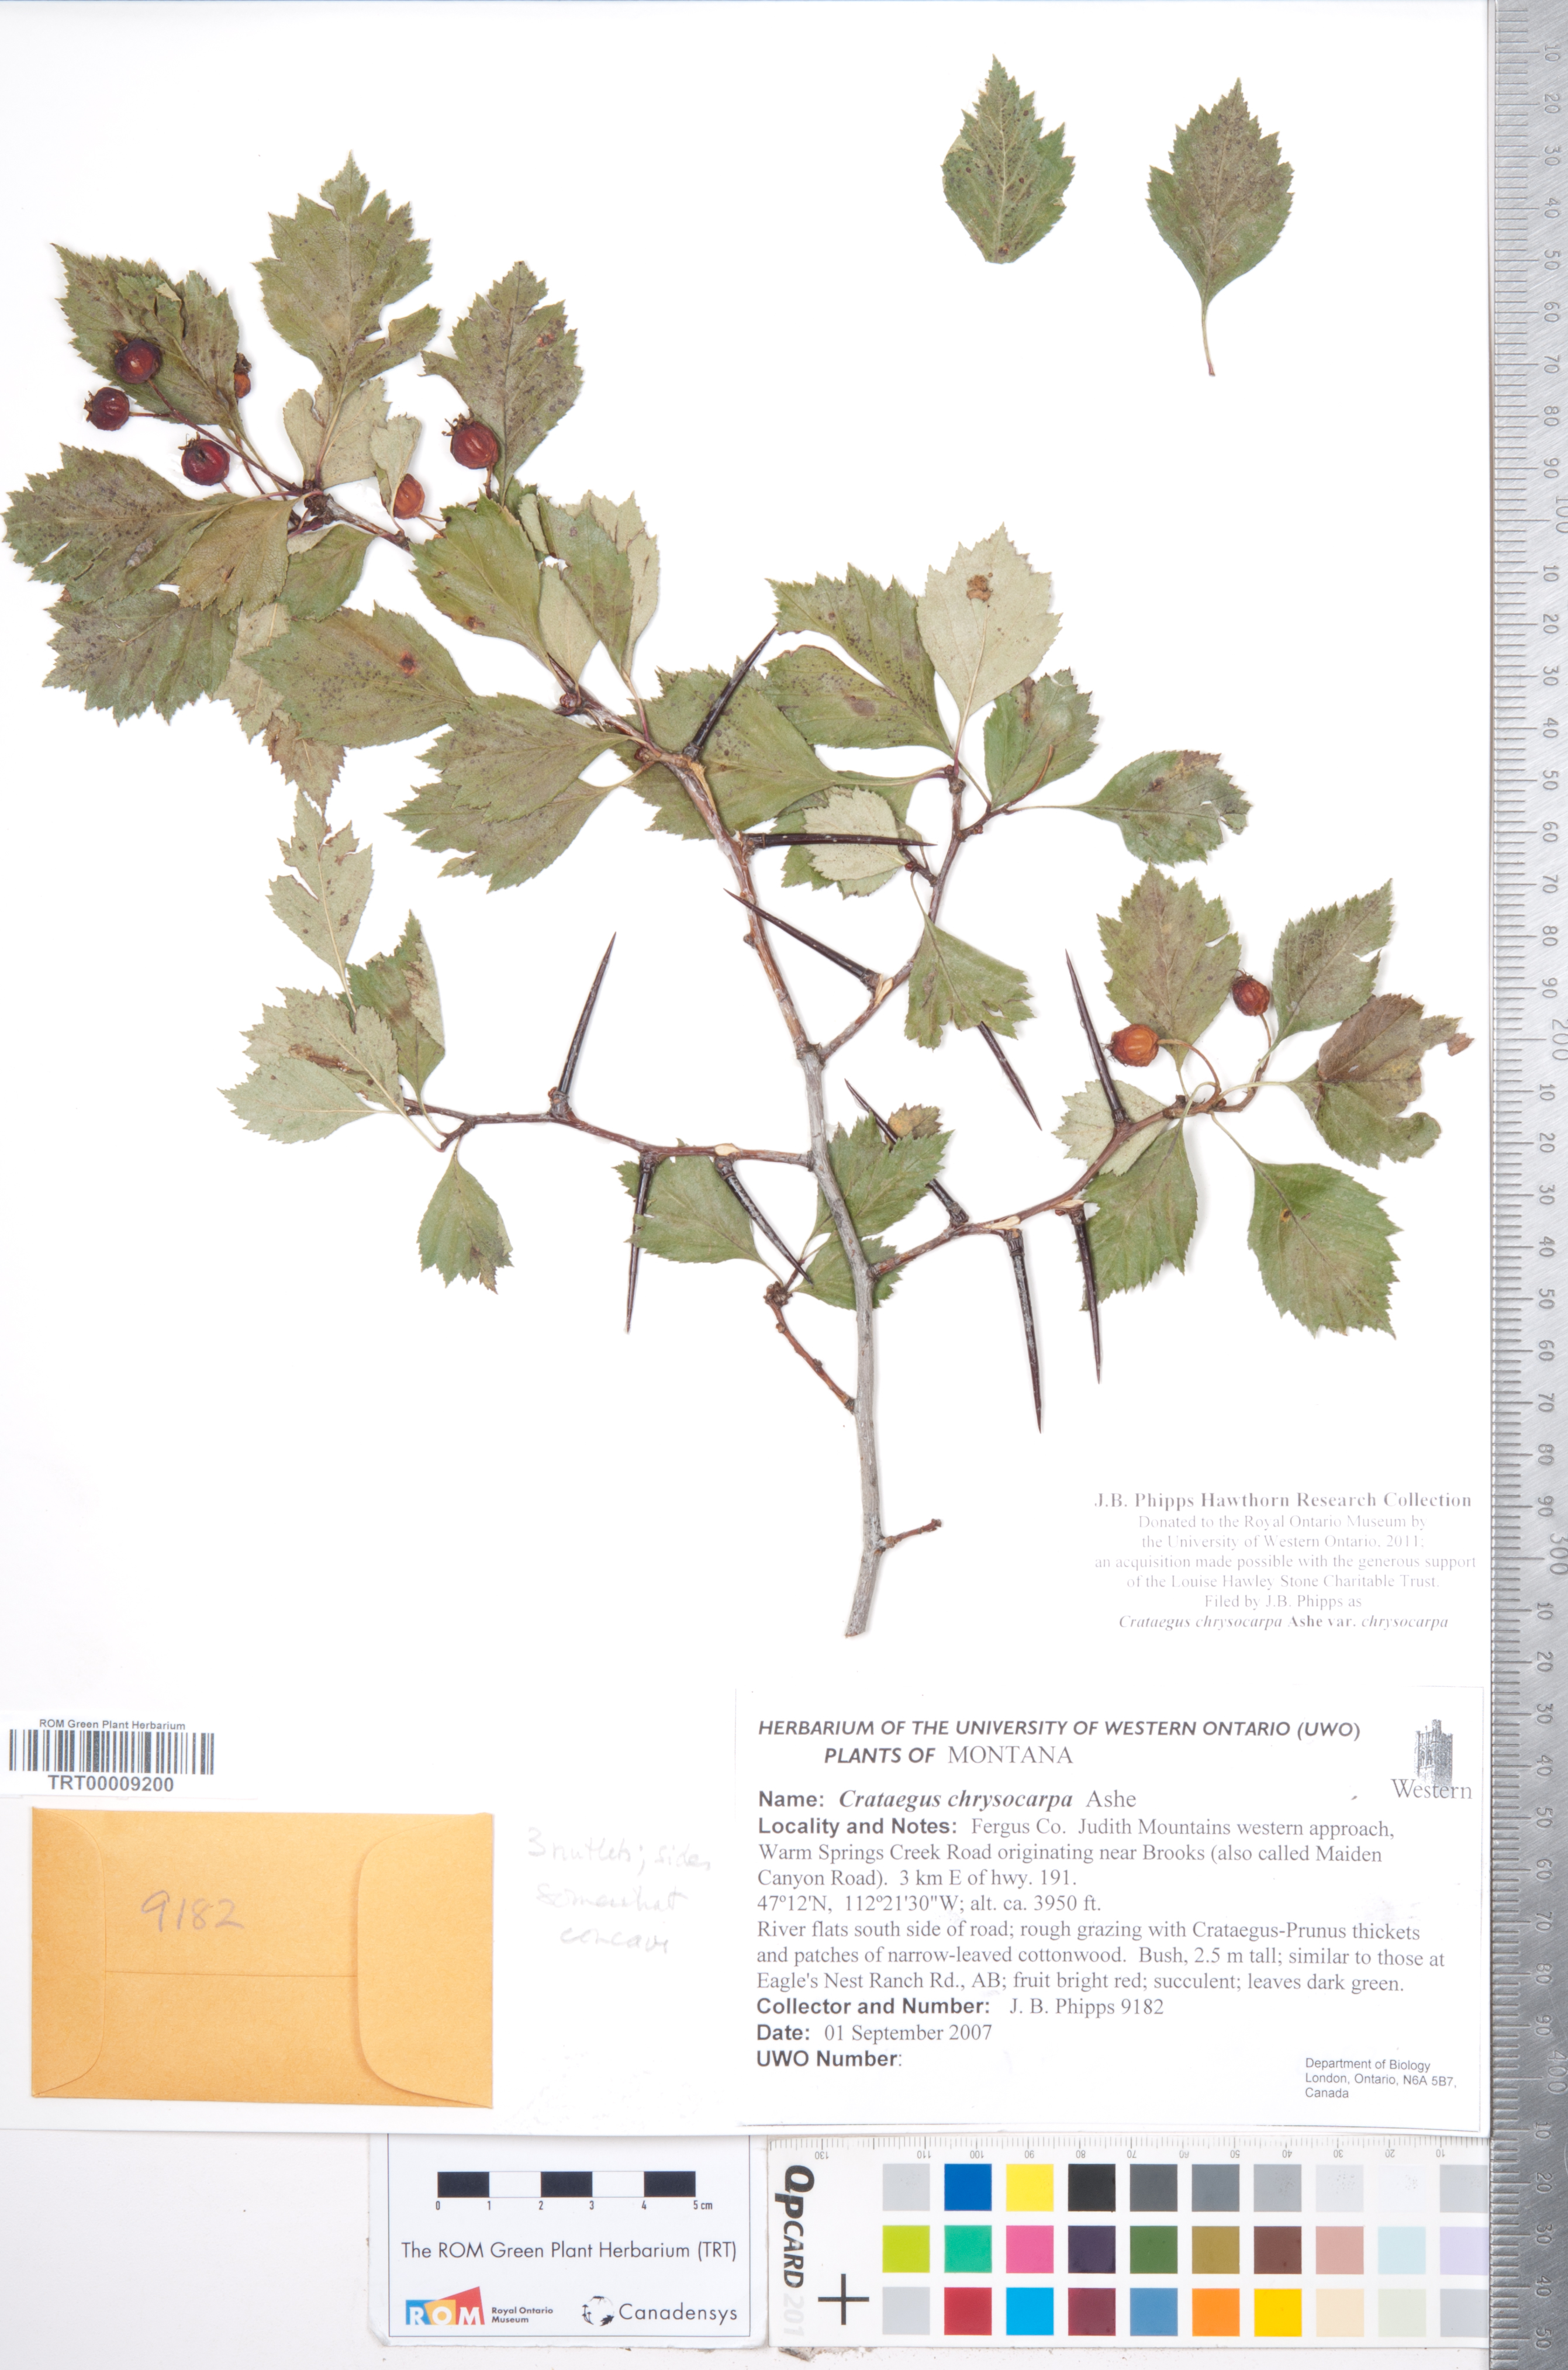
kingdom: Plantae
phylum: Tracheophyta
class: Magnoliopsida
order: Rosales
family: Rosaceae
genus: Crataegus
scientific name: Crataegus chrysocarpa
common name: Fire-berry hawthorn
